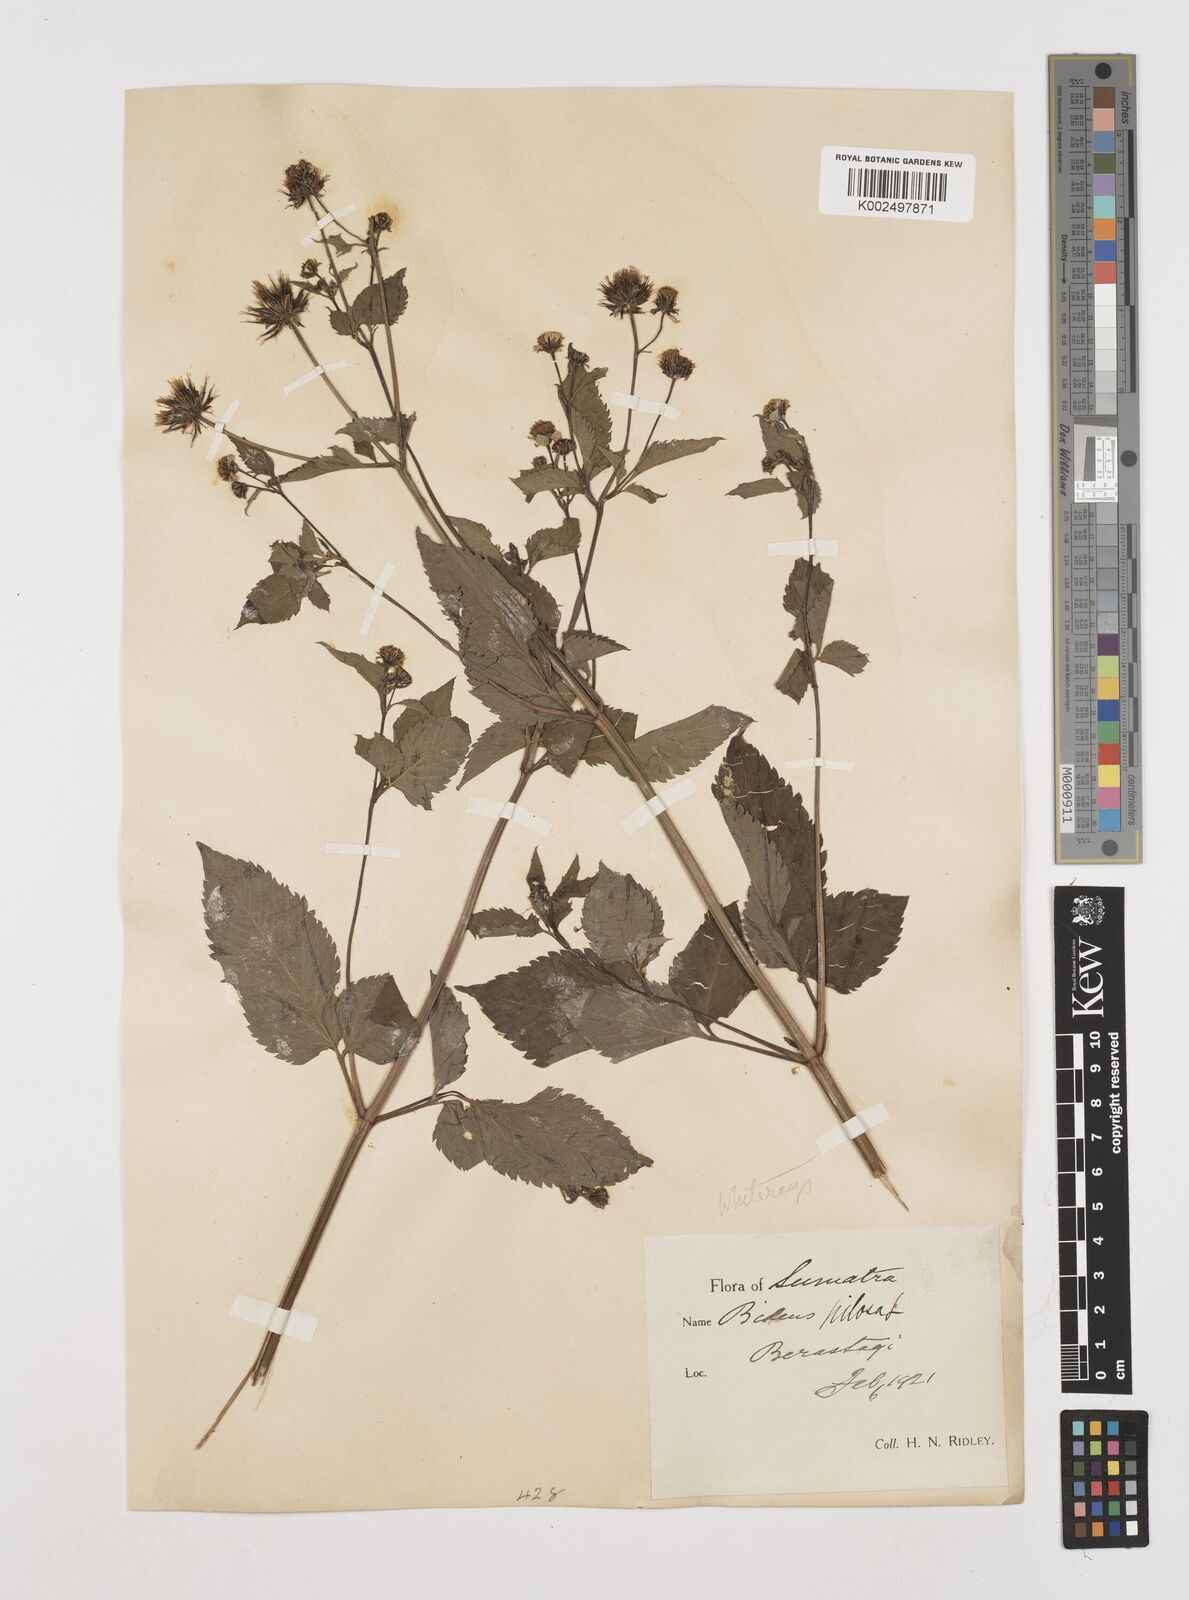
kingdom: Plantae
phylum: Tracheophyta
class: Magnoliopsida
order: Asterales
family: Asteraceae
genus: Bidens
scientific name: Bidens pilosa
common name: Black-jack
